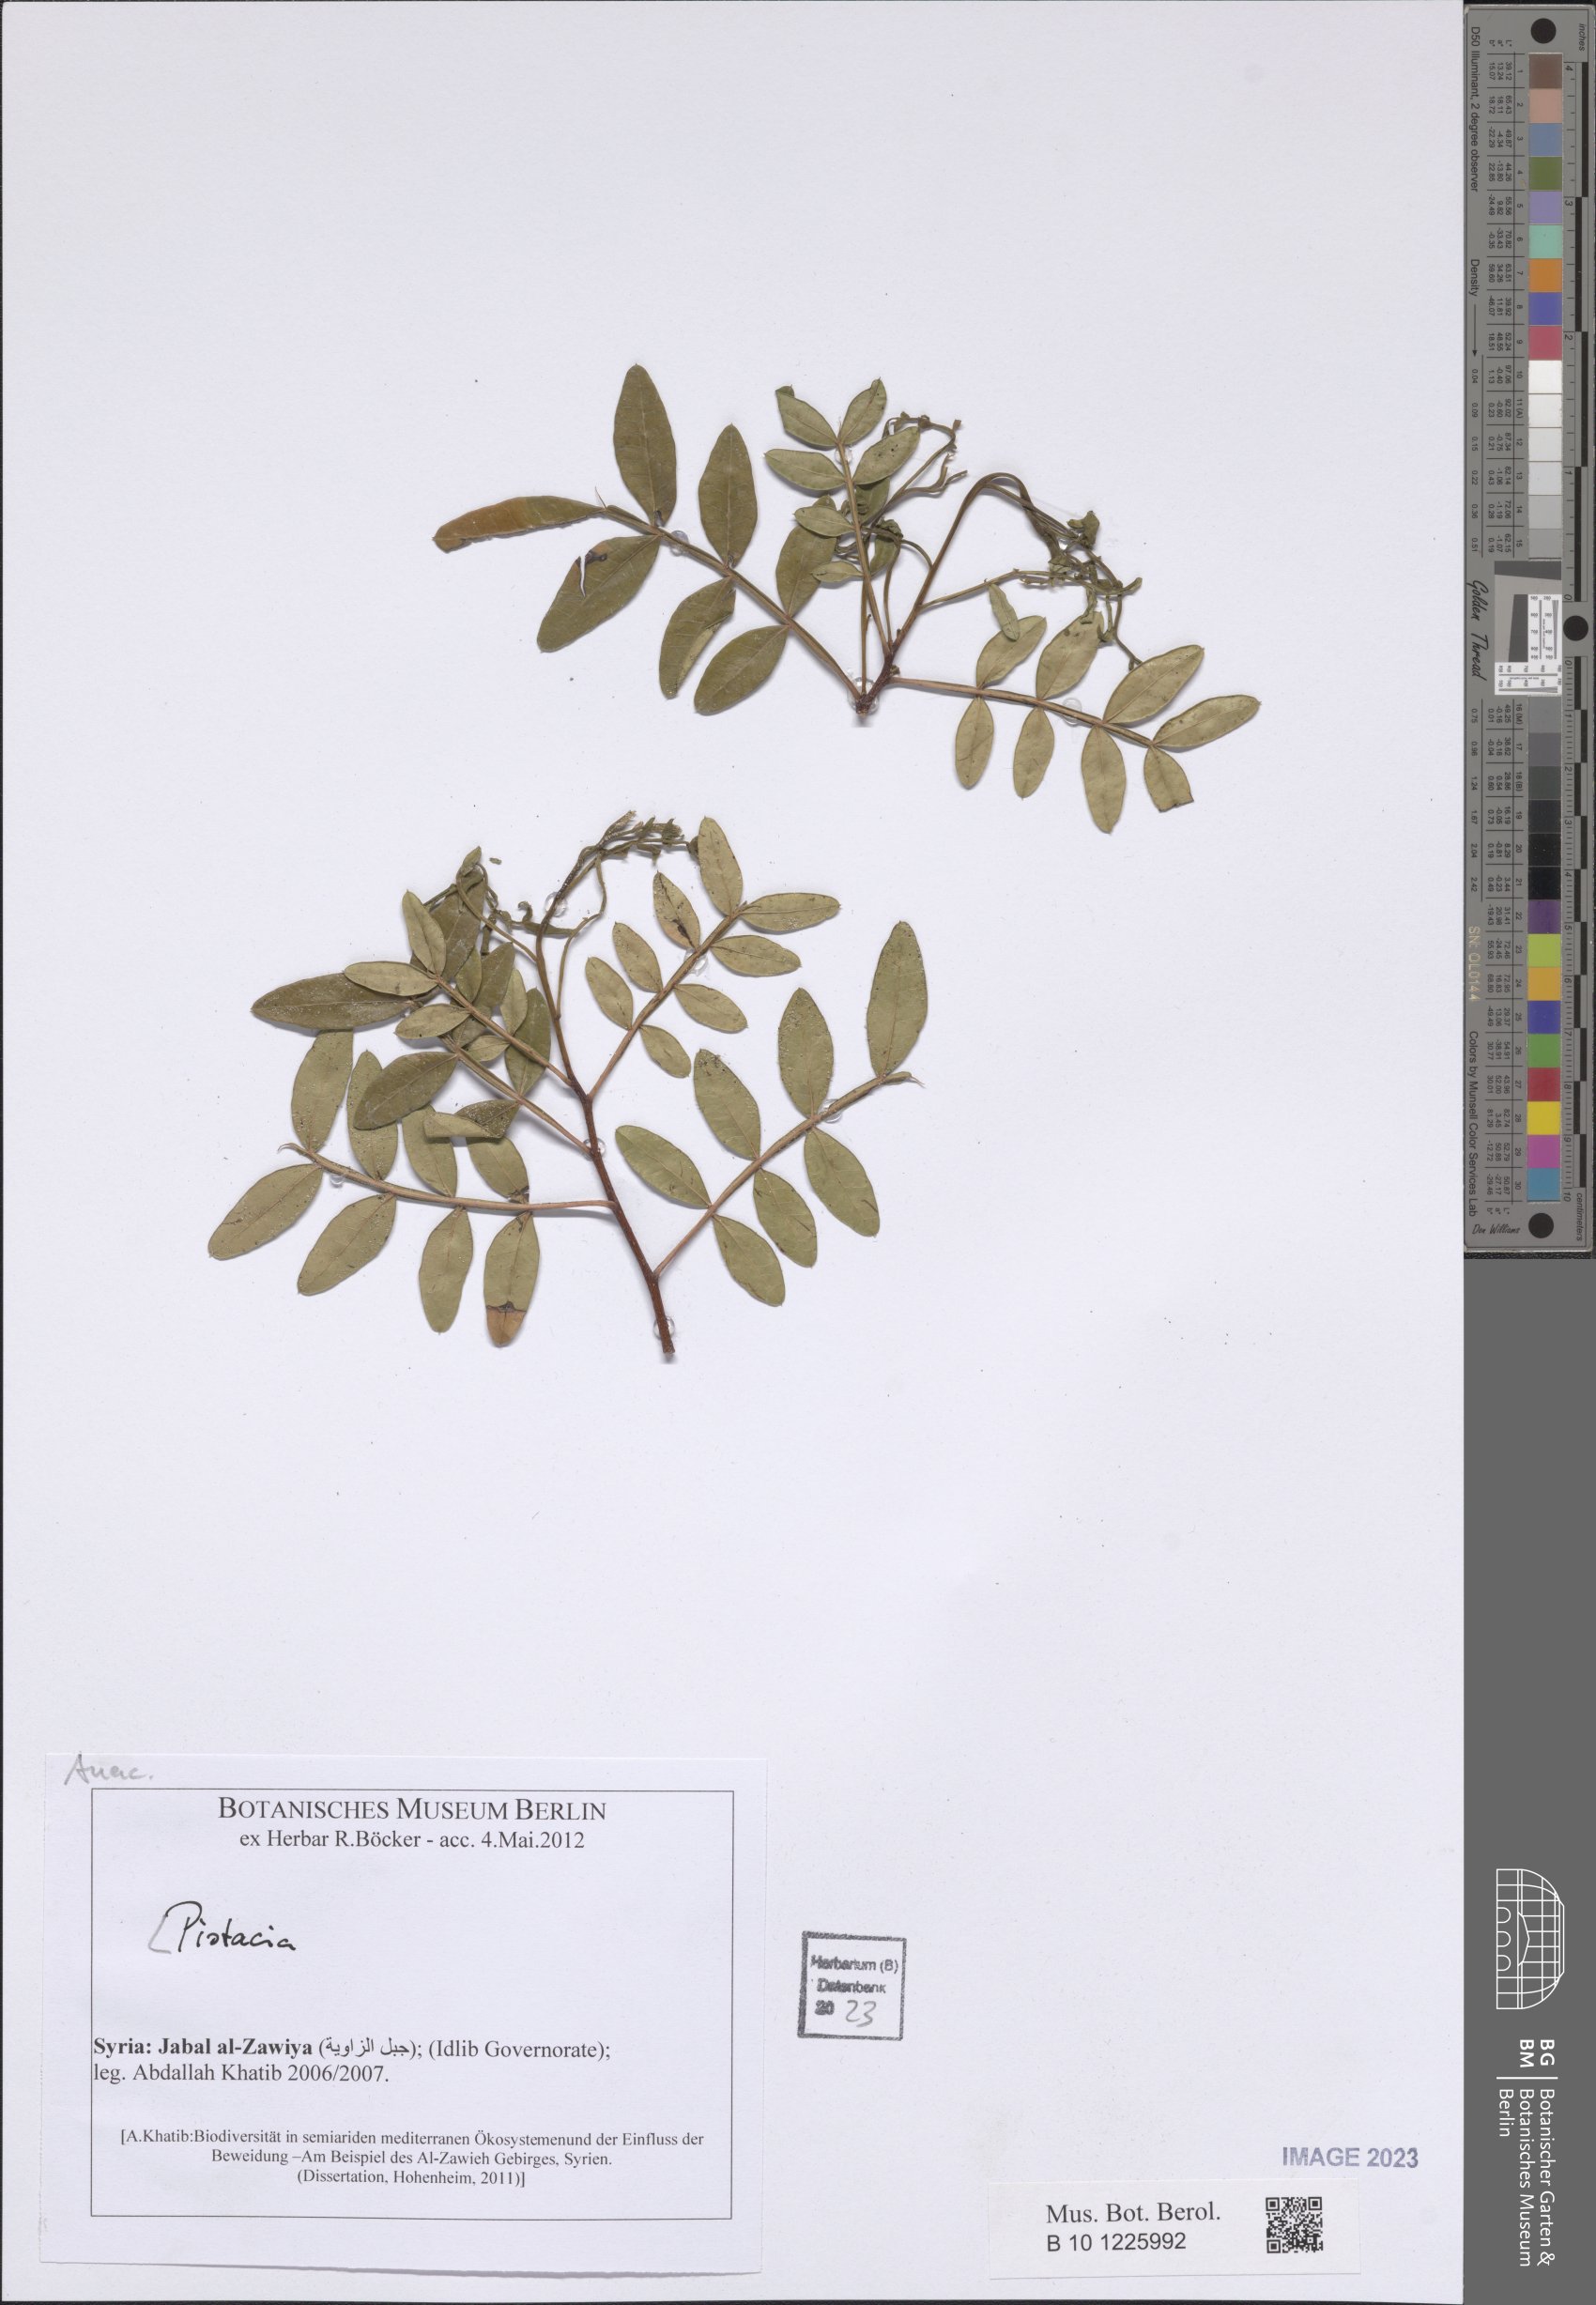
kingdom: Plantae
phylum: Tracheophyta
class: Magnoliopsida
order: Sapindales
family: Anacardiaceae
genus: Pistacia
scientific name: Pistacia
